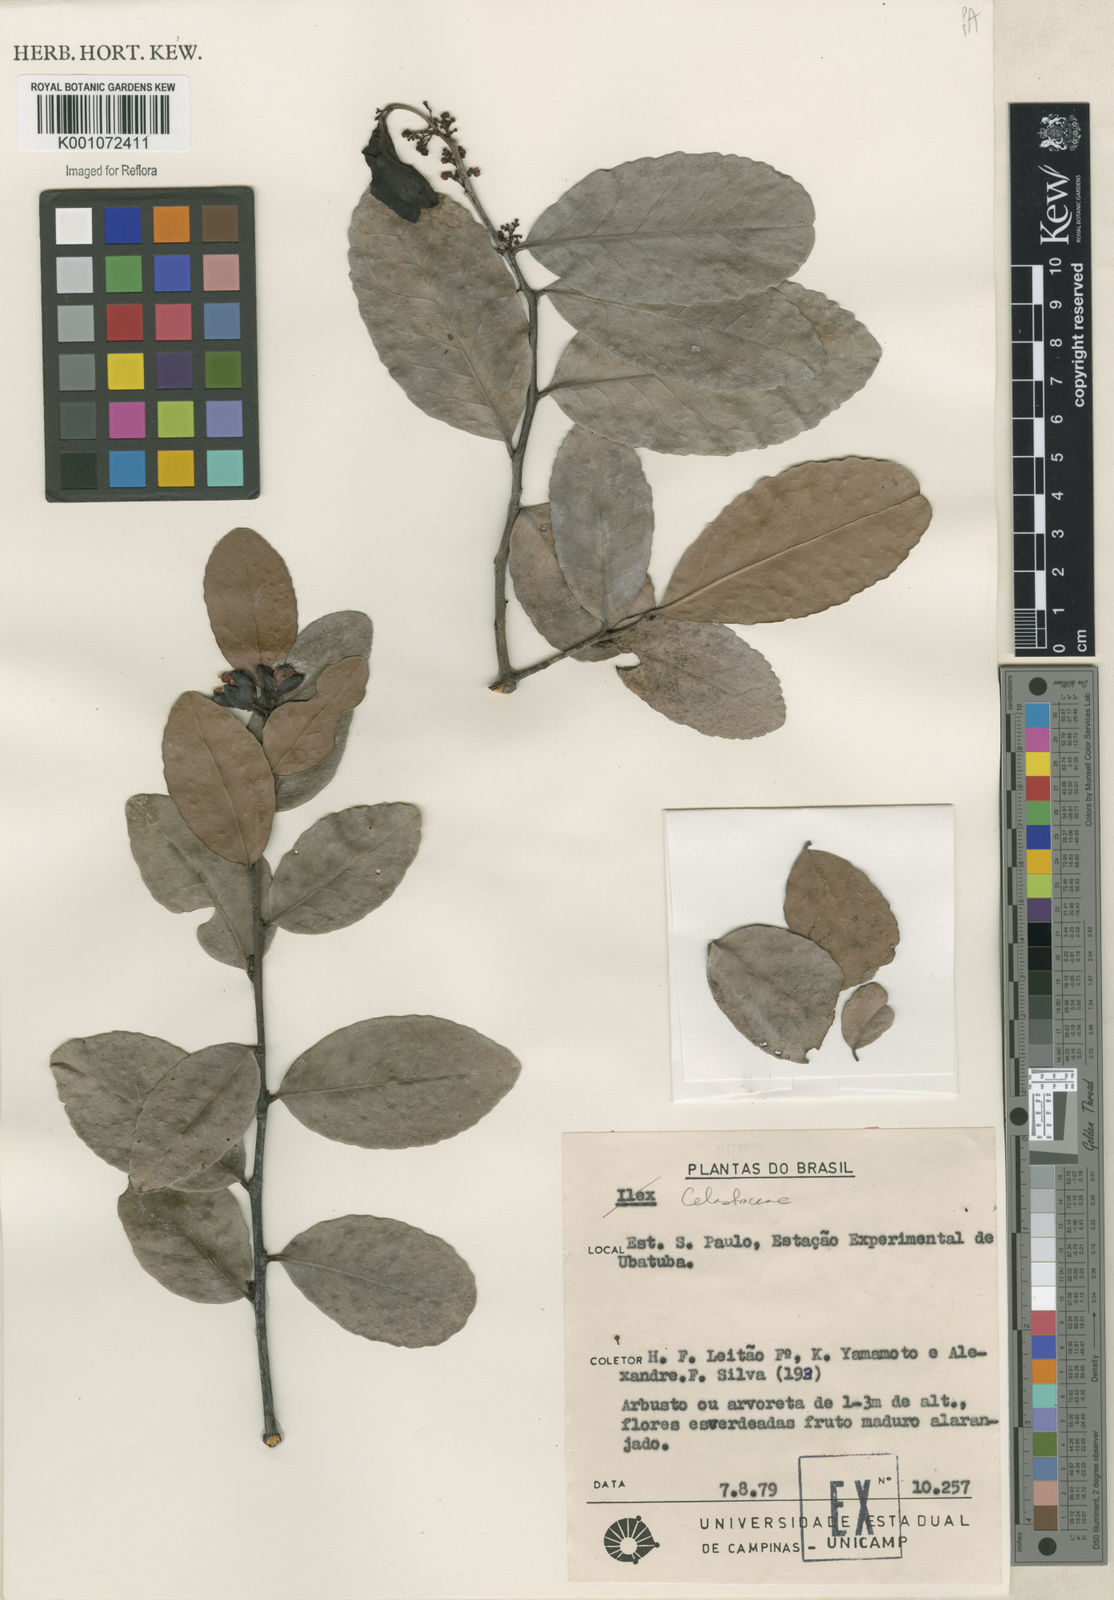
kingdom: Plantae
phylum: Tracheophyta
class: Magnoliopsida
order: Celastrales
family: Celastraceae
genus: Maytenus
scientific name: Maytenus
